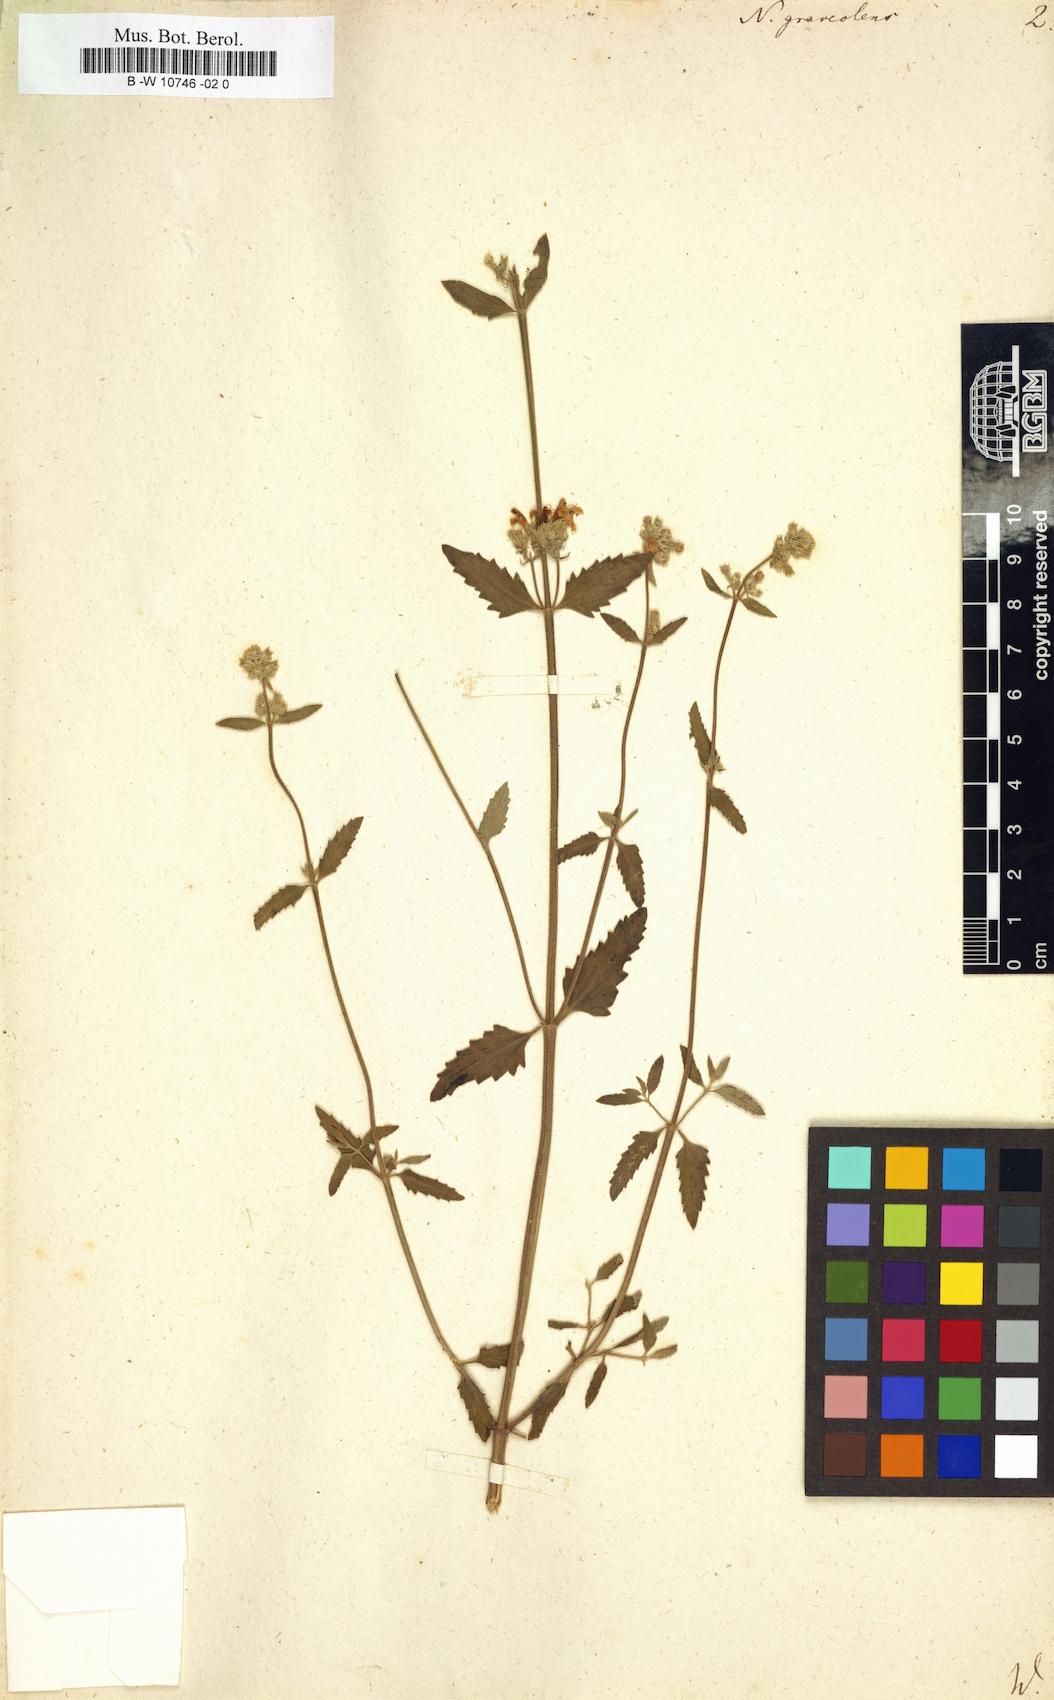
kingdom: Plantae
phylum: Tracheophyta
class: Magnoliopsida
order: Lamiales
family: Lamiaceae
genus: Nepeta
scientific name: Nepeta nepetella
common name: Lesser catmint
